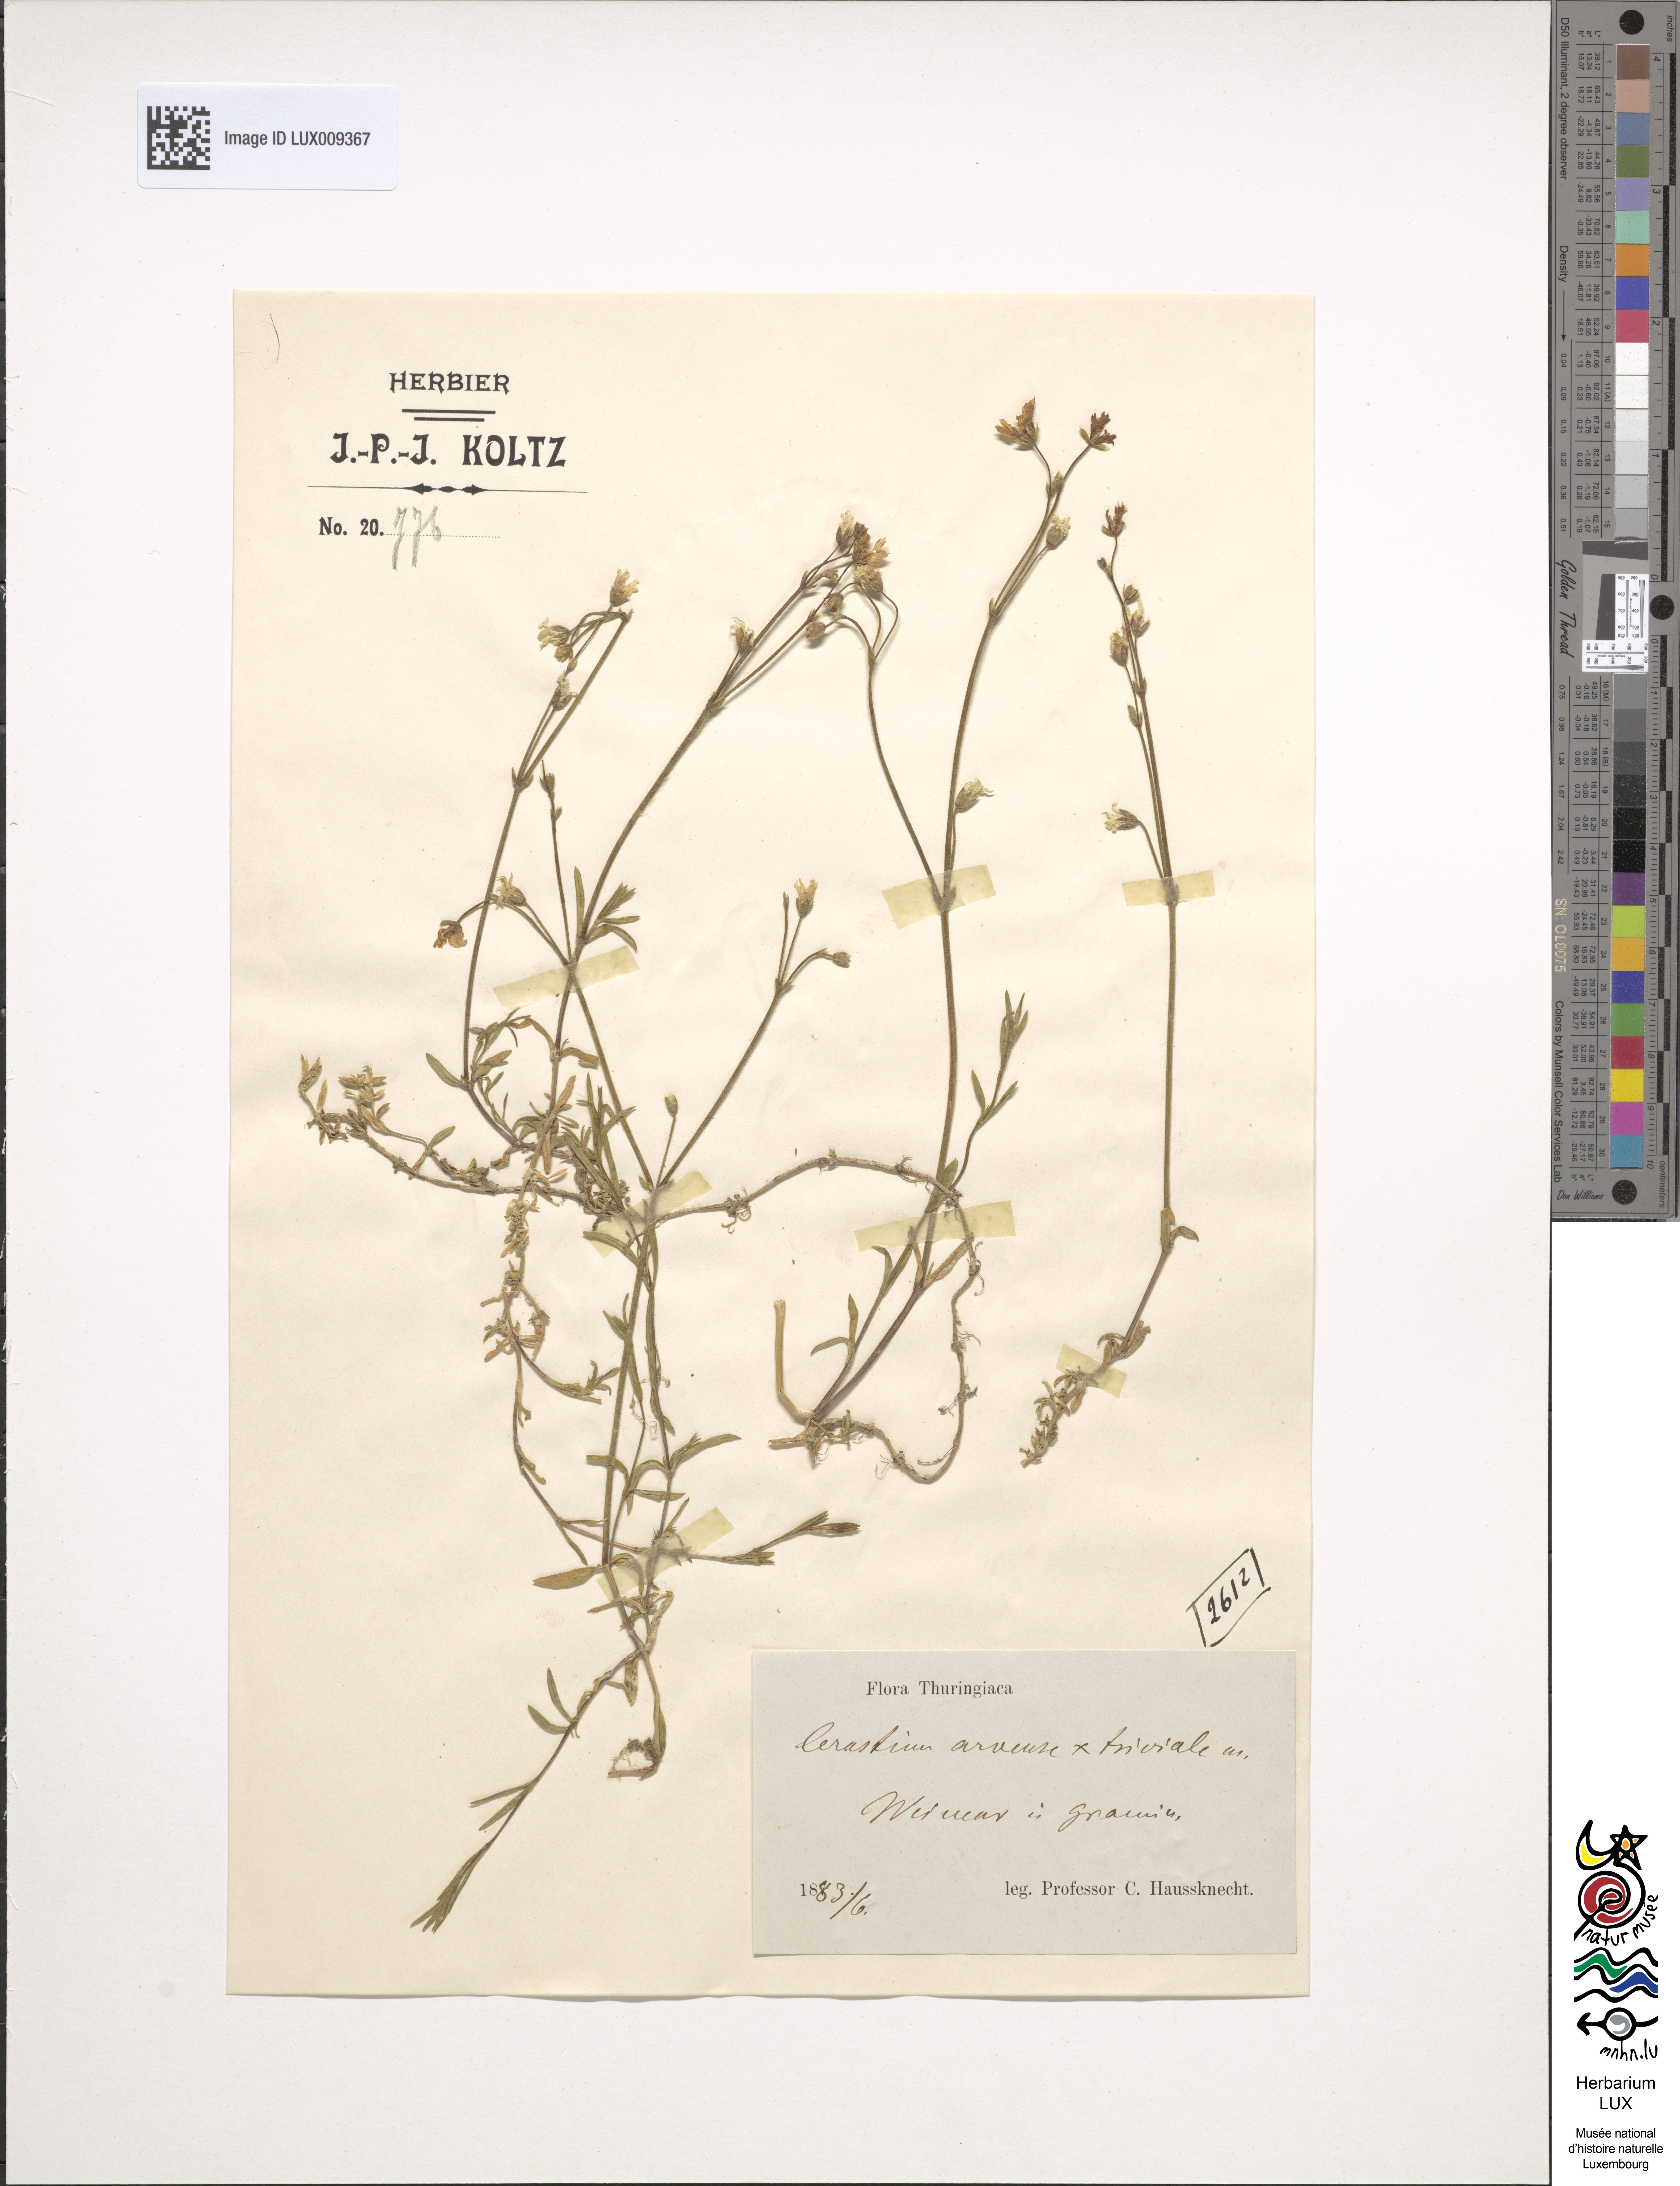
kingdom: Plantae
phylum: Tracheophyta
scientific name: Tracheophyta
